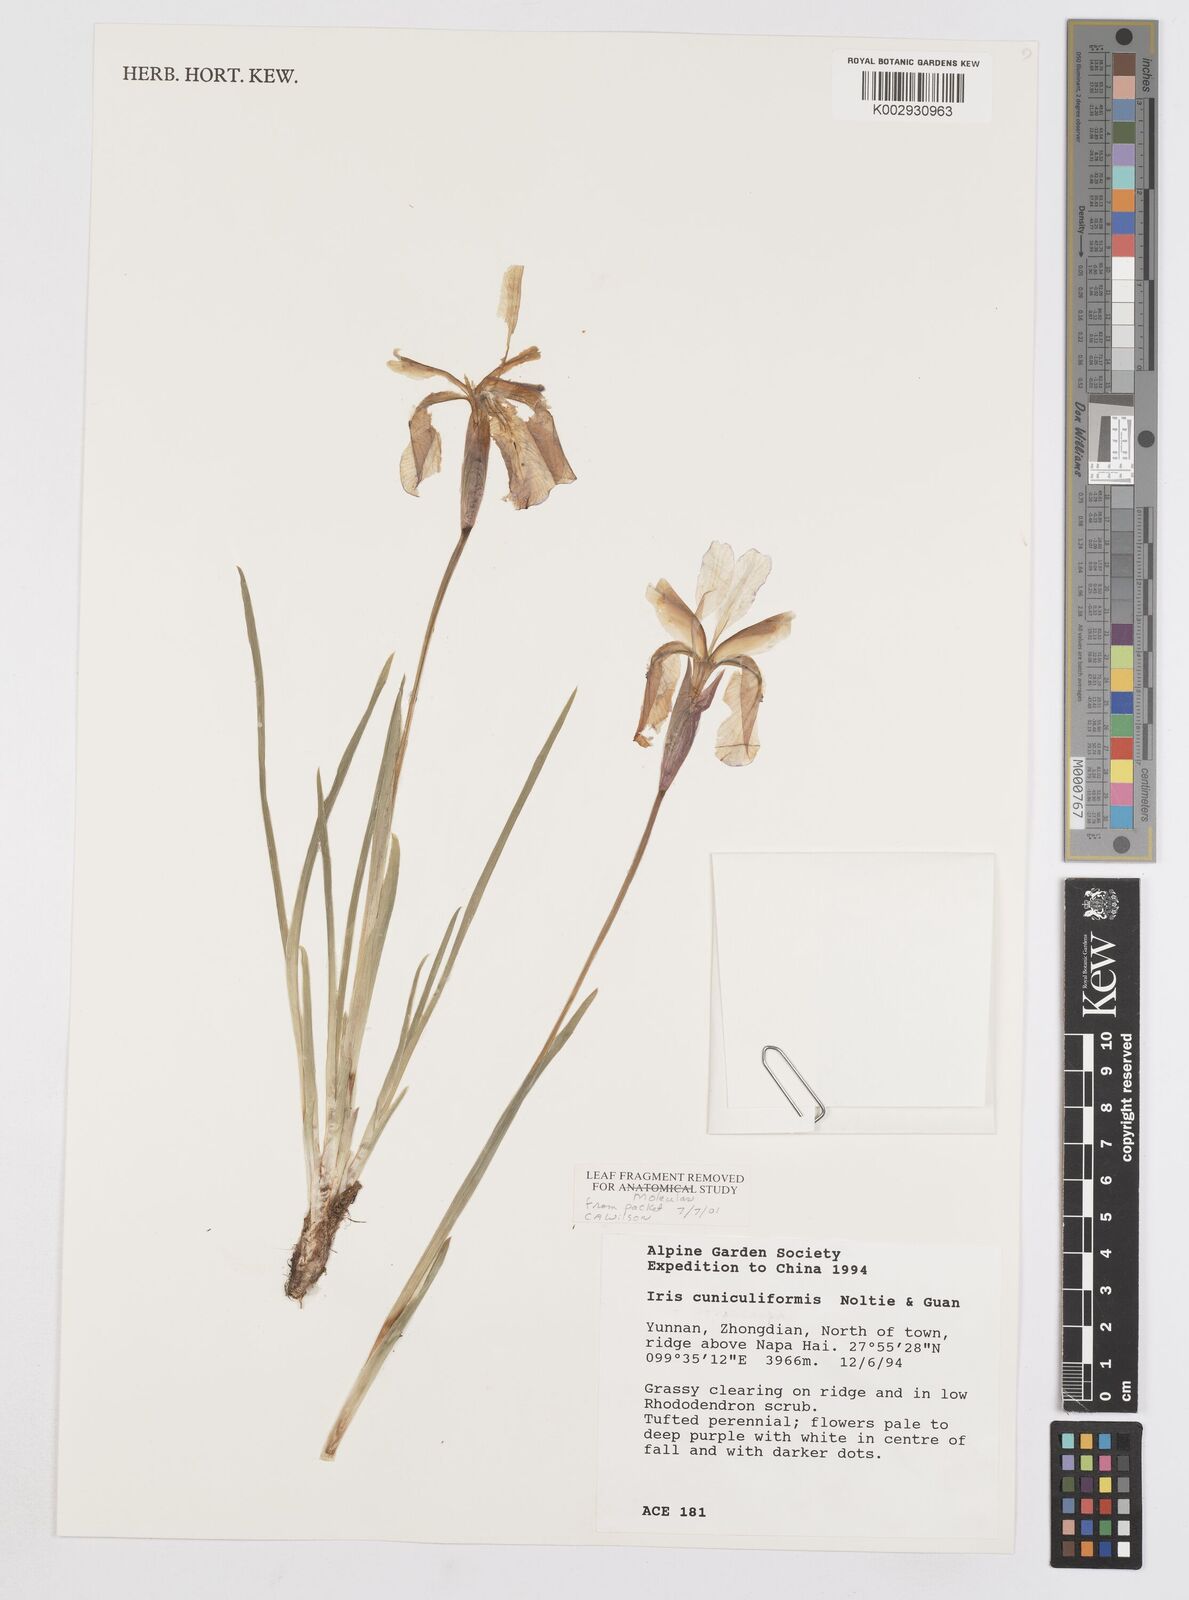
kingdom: Plantae
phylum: Tracheophyta
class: Liliopsida
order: Asparagales
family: Iridaceae
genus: Iris
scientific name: Iris cuniculiformis
